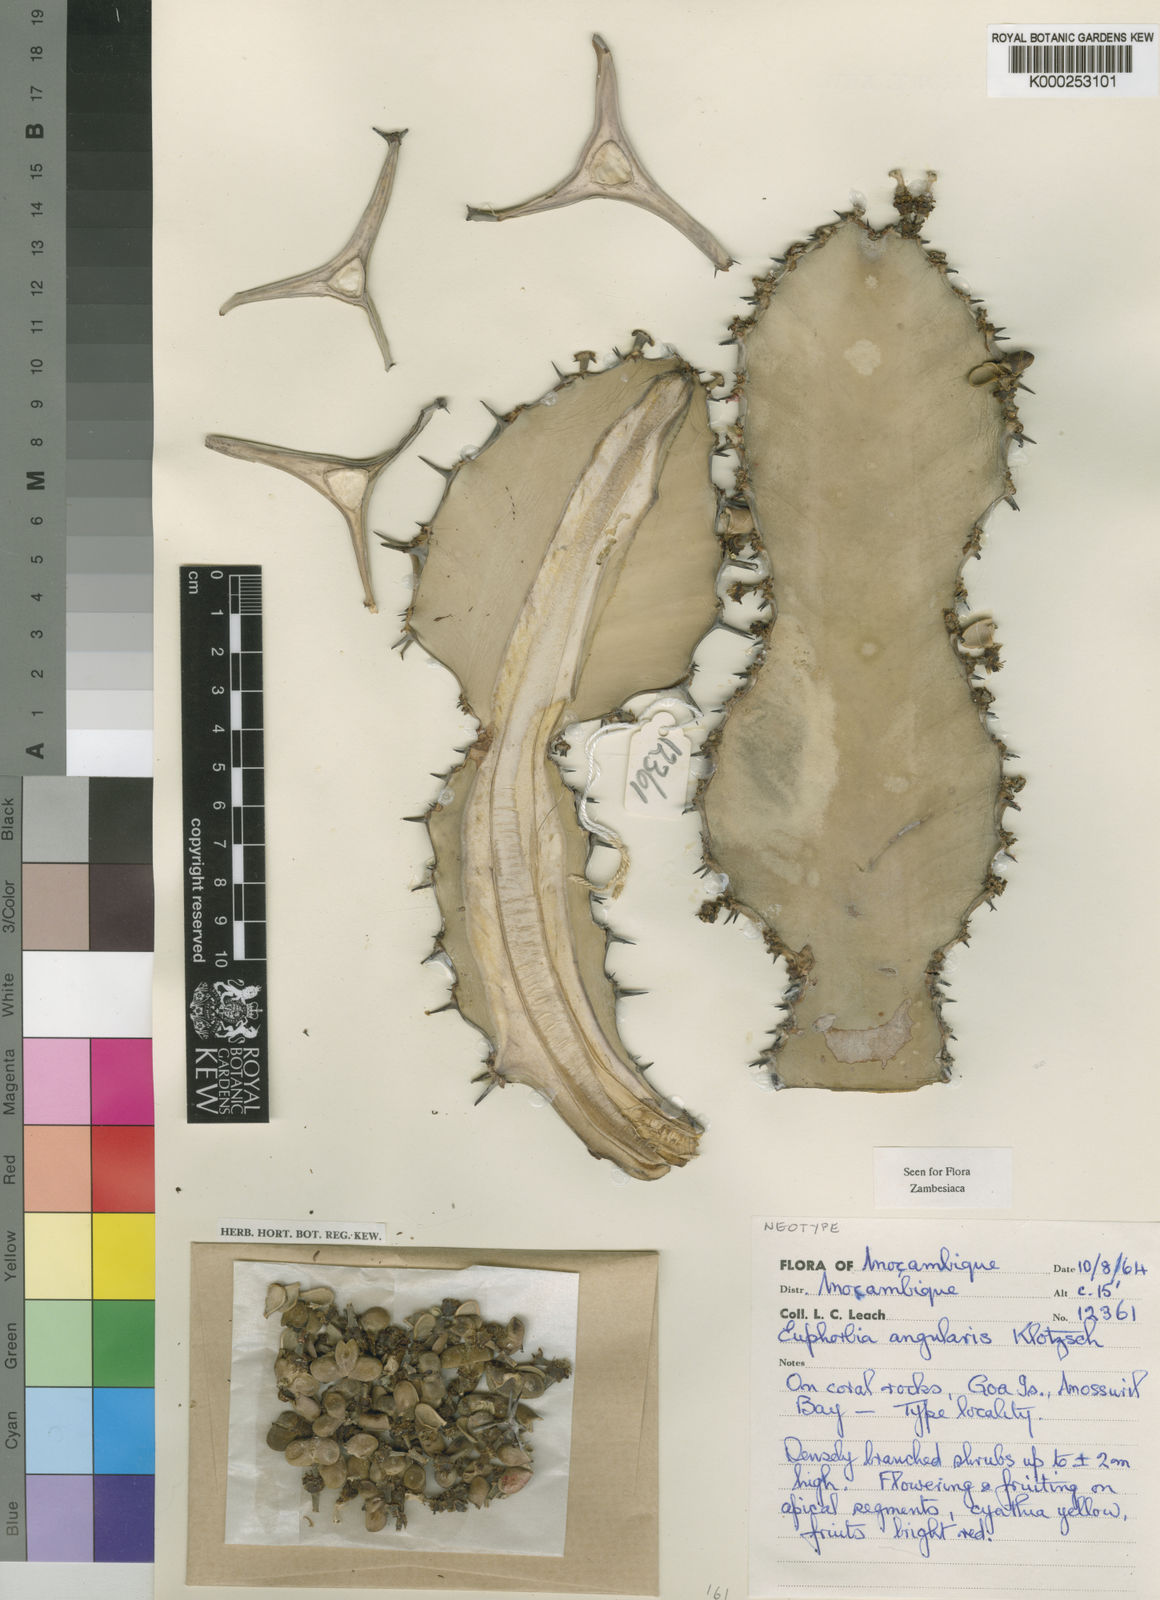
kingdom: Plantae
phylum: Tracheophyta
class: Magnoliopsida
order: Malpighiales
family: Euphorbiaceae
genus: Euphorbia
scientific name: Euphorbia angularis
